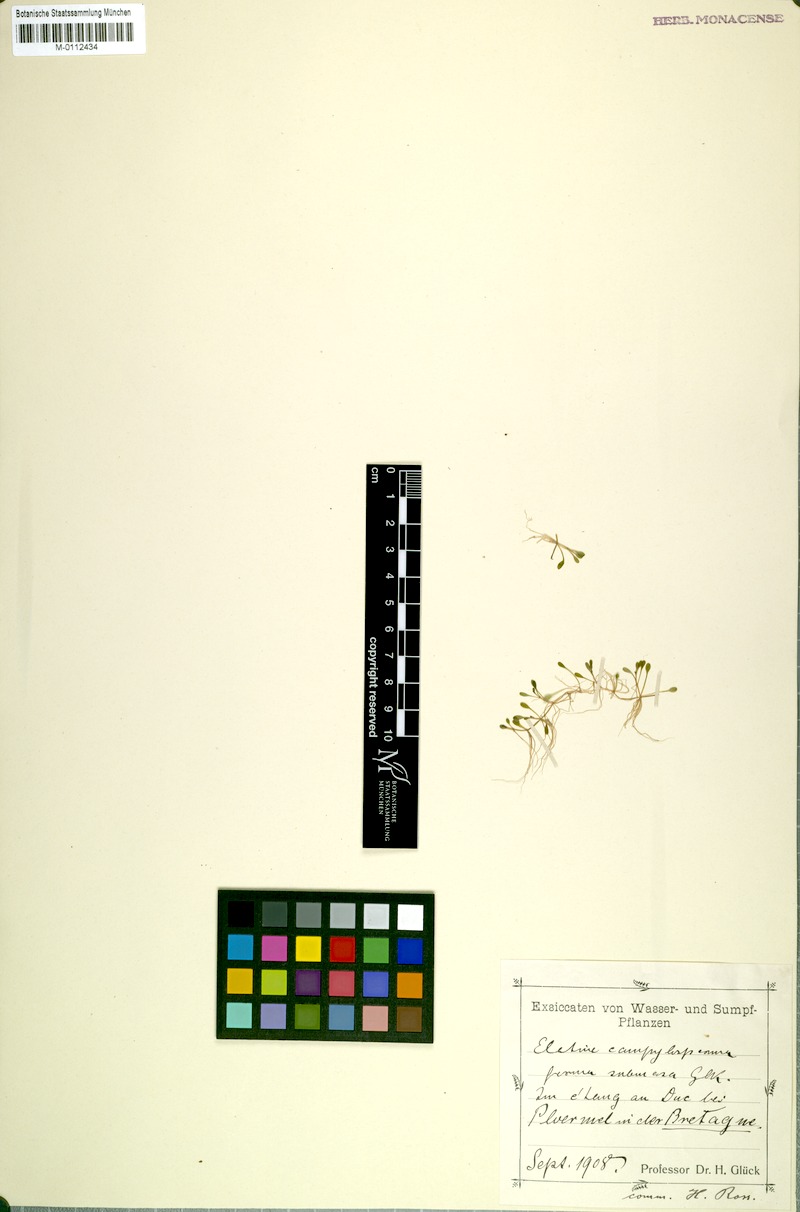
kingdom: Plantae
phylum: Tracheophyta
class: Magnoliopsida
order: Malpighiales
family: Elatinaceae
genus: Elatine
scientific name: Elatine macropoda
